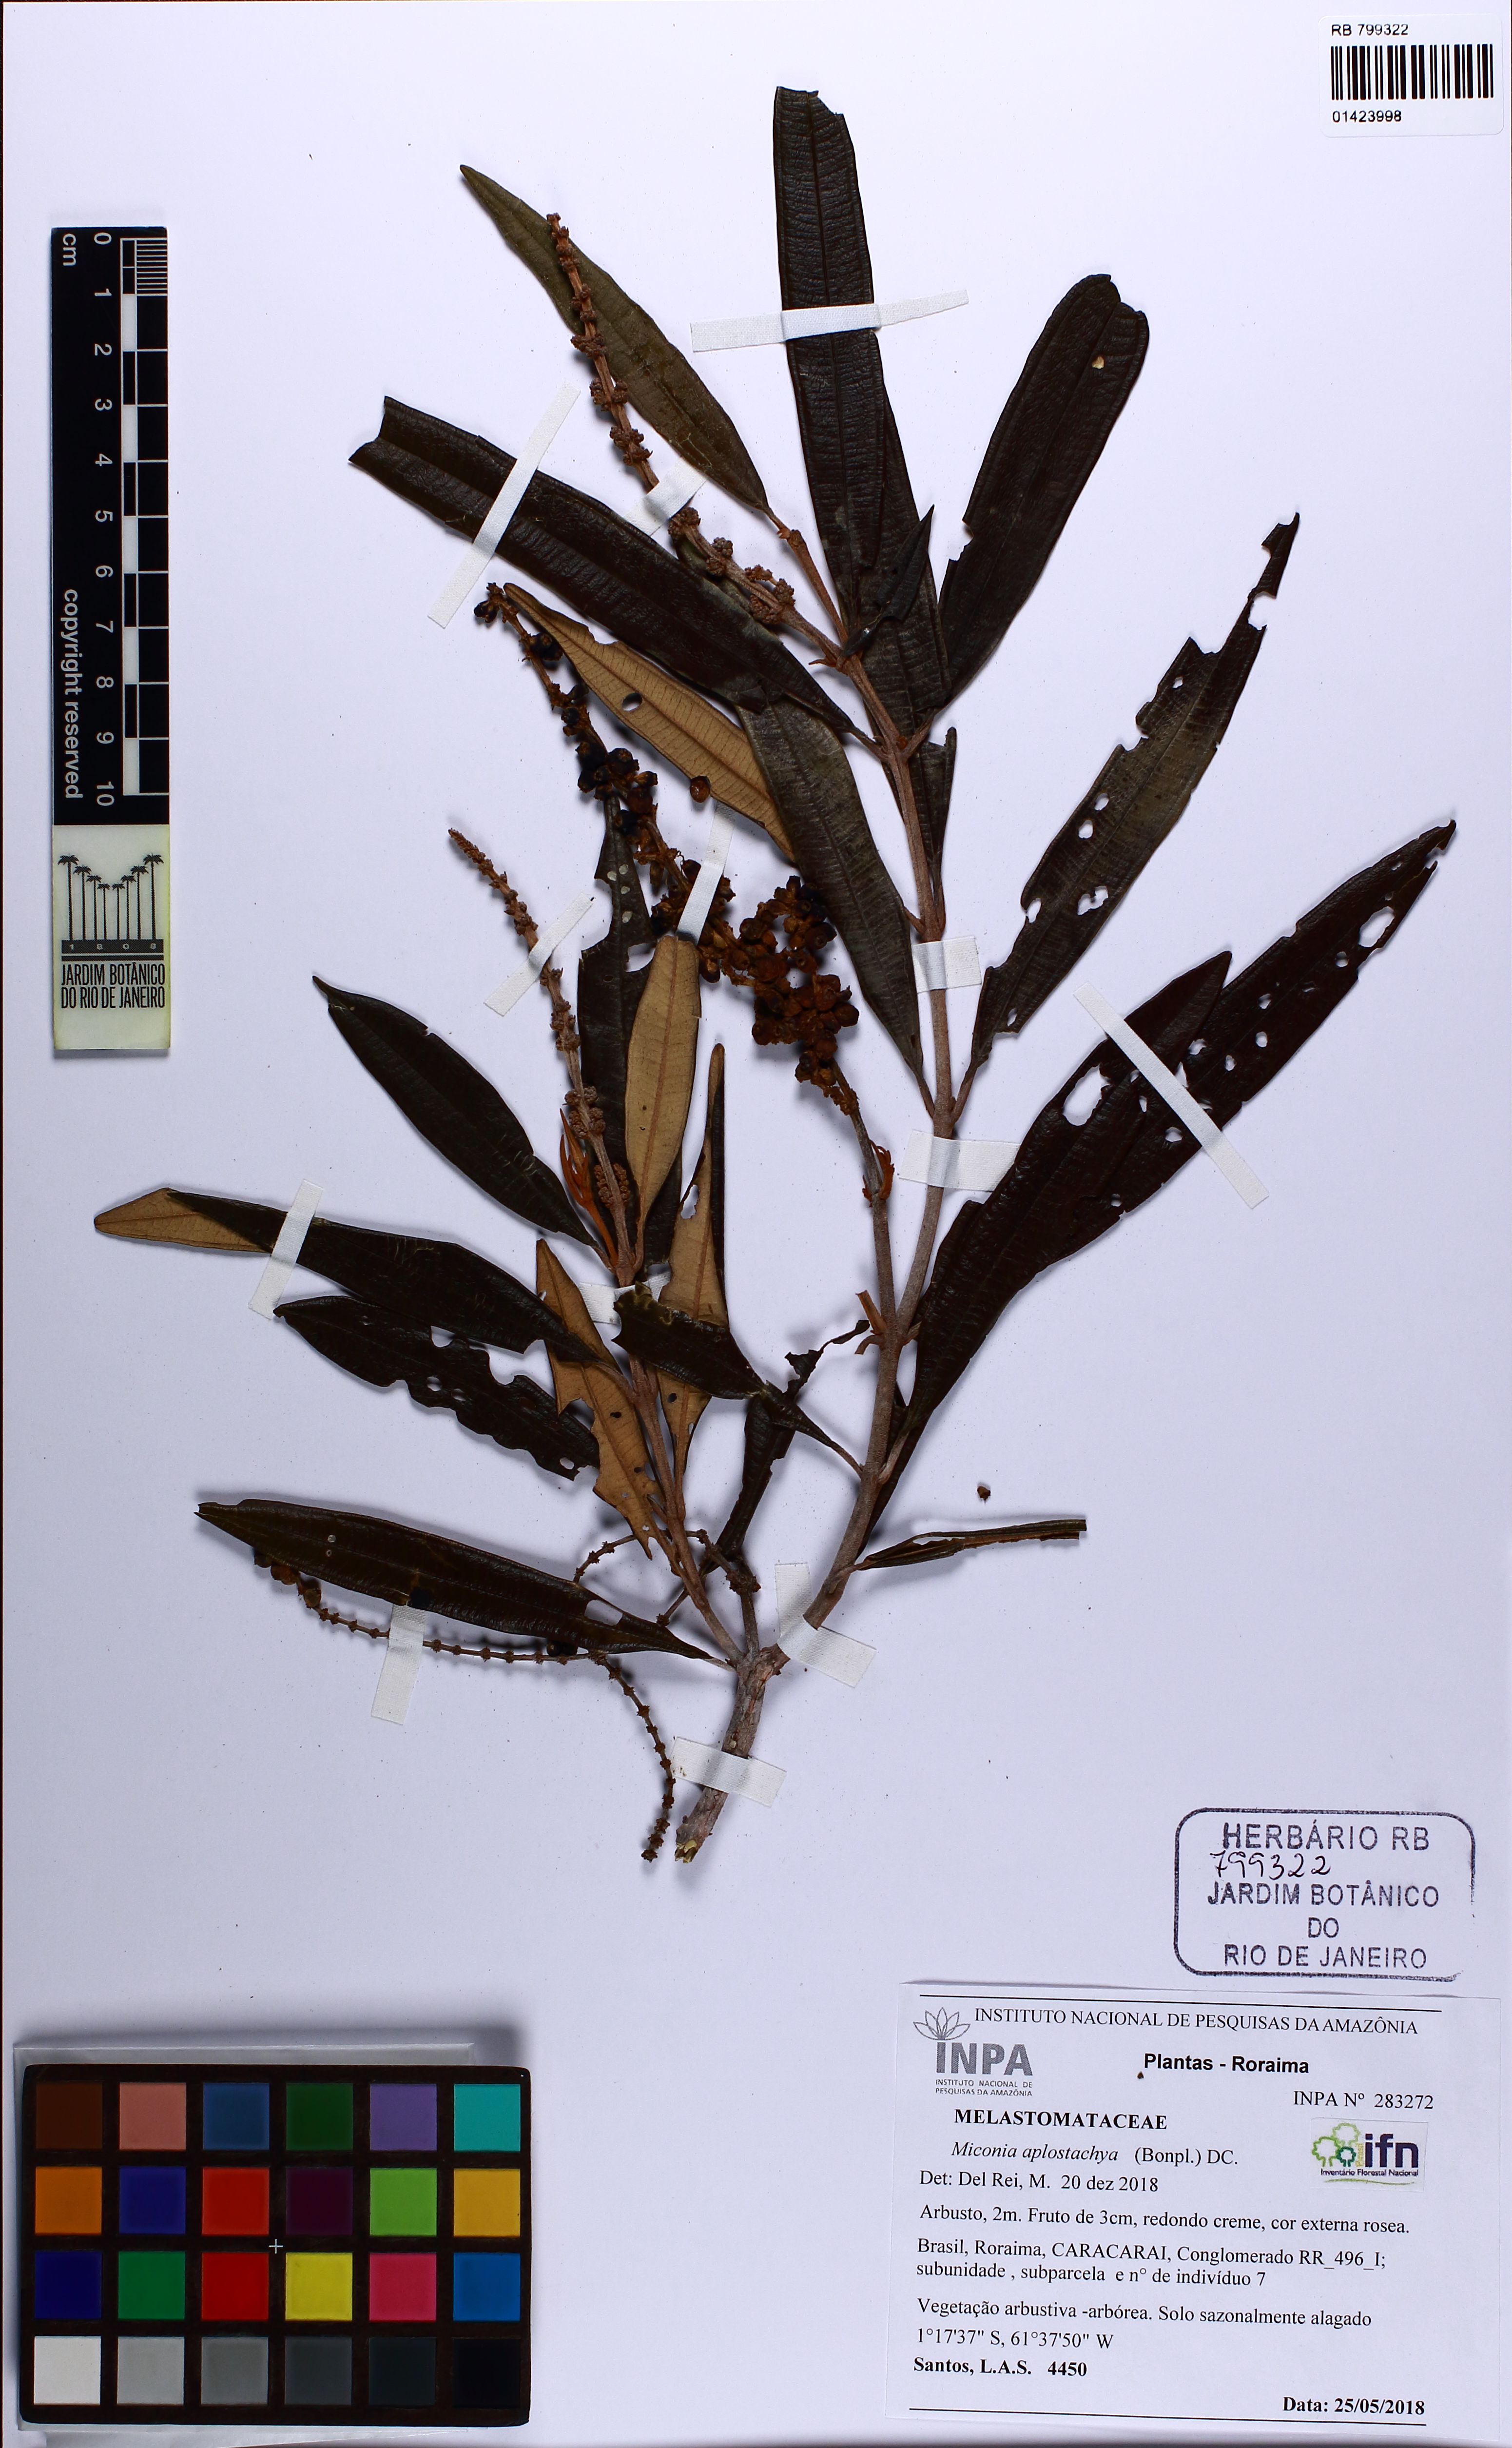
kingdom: Plantae
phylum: Tracheophyta
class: Magnoliopsida
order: Myrtales
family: Melastomataceae
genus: Miconia
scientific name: Miconia aplostachya
